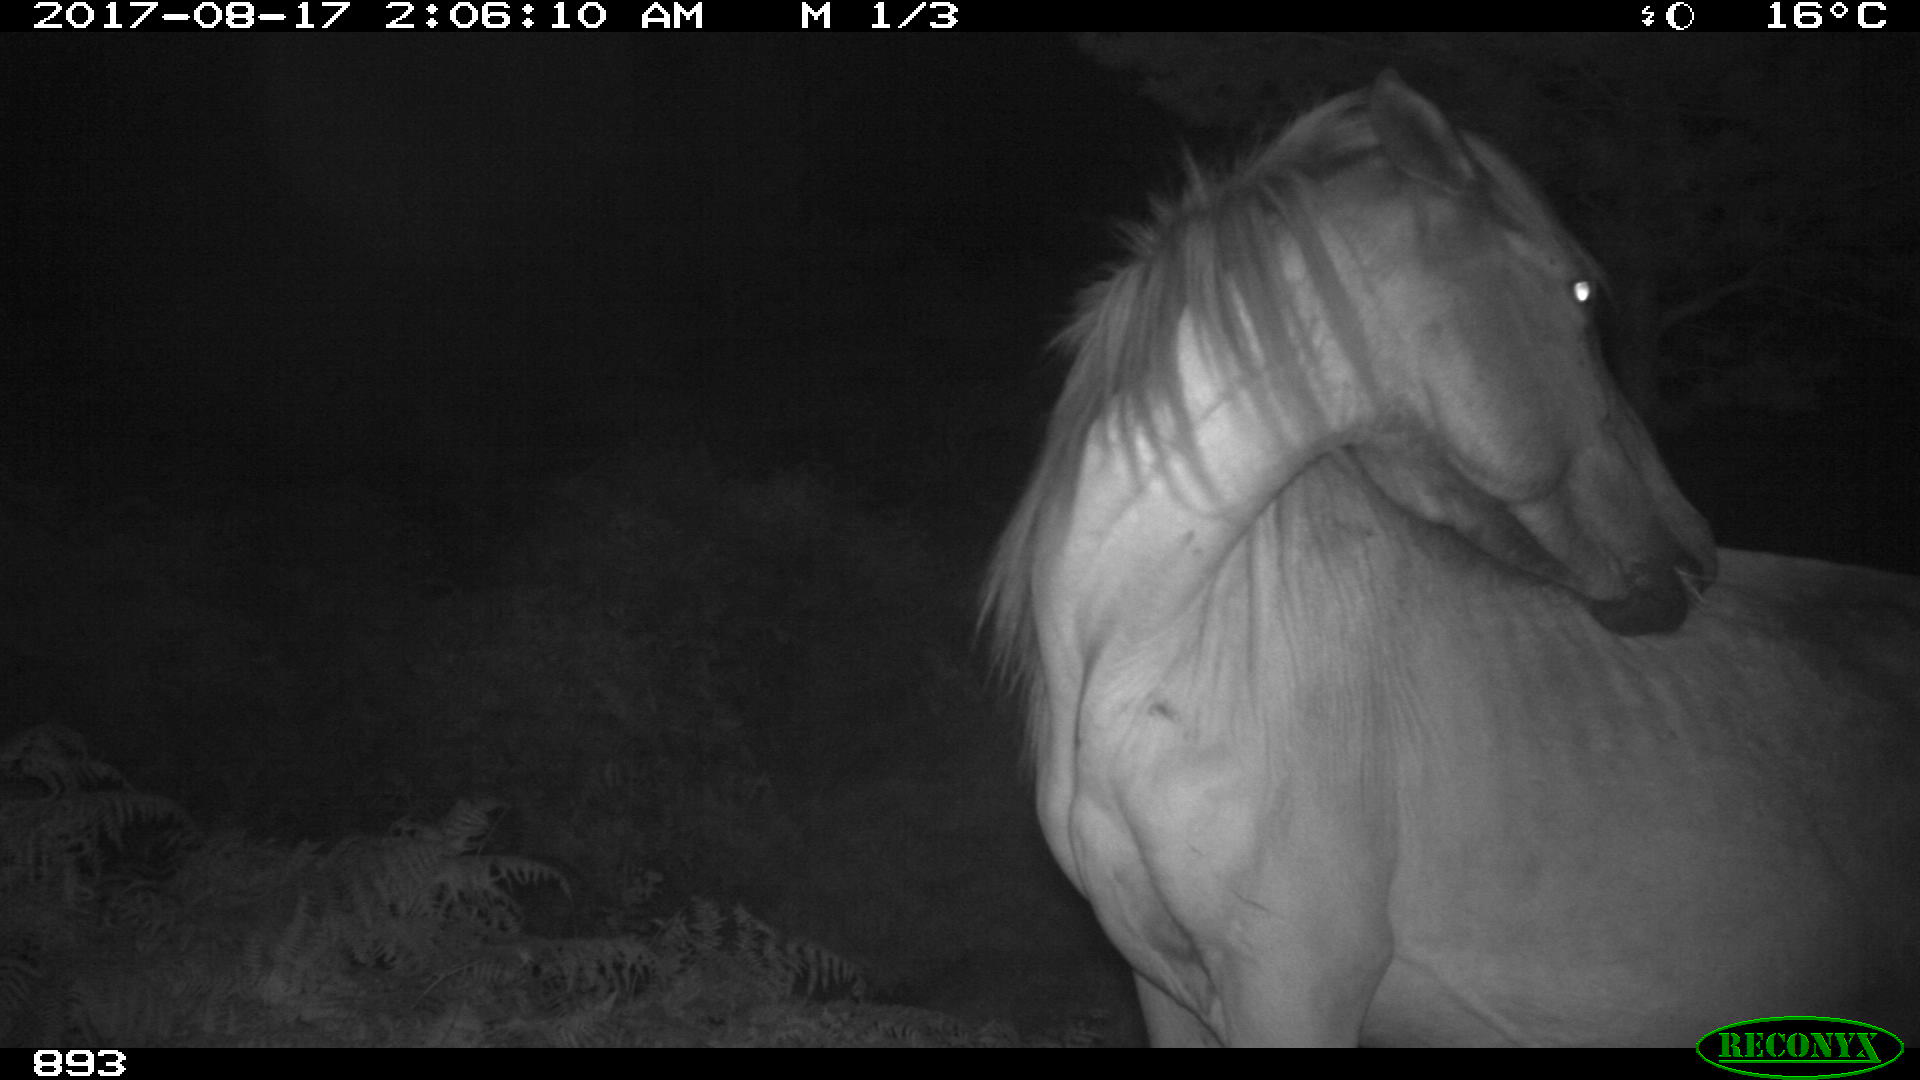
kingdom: Animalia
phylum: Chordata
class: Mammalia
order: Perissodactyla
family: Equidae
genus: Equus
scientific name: Equus caballus
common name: Horse
